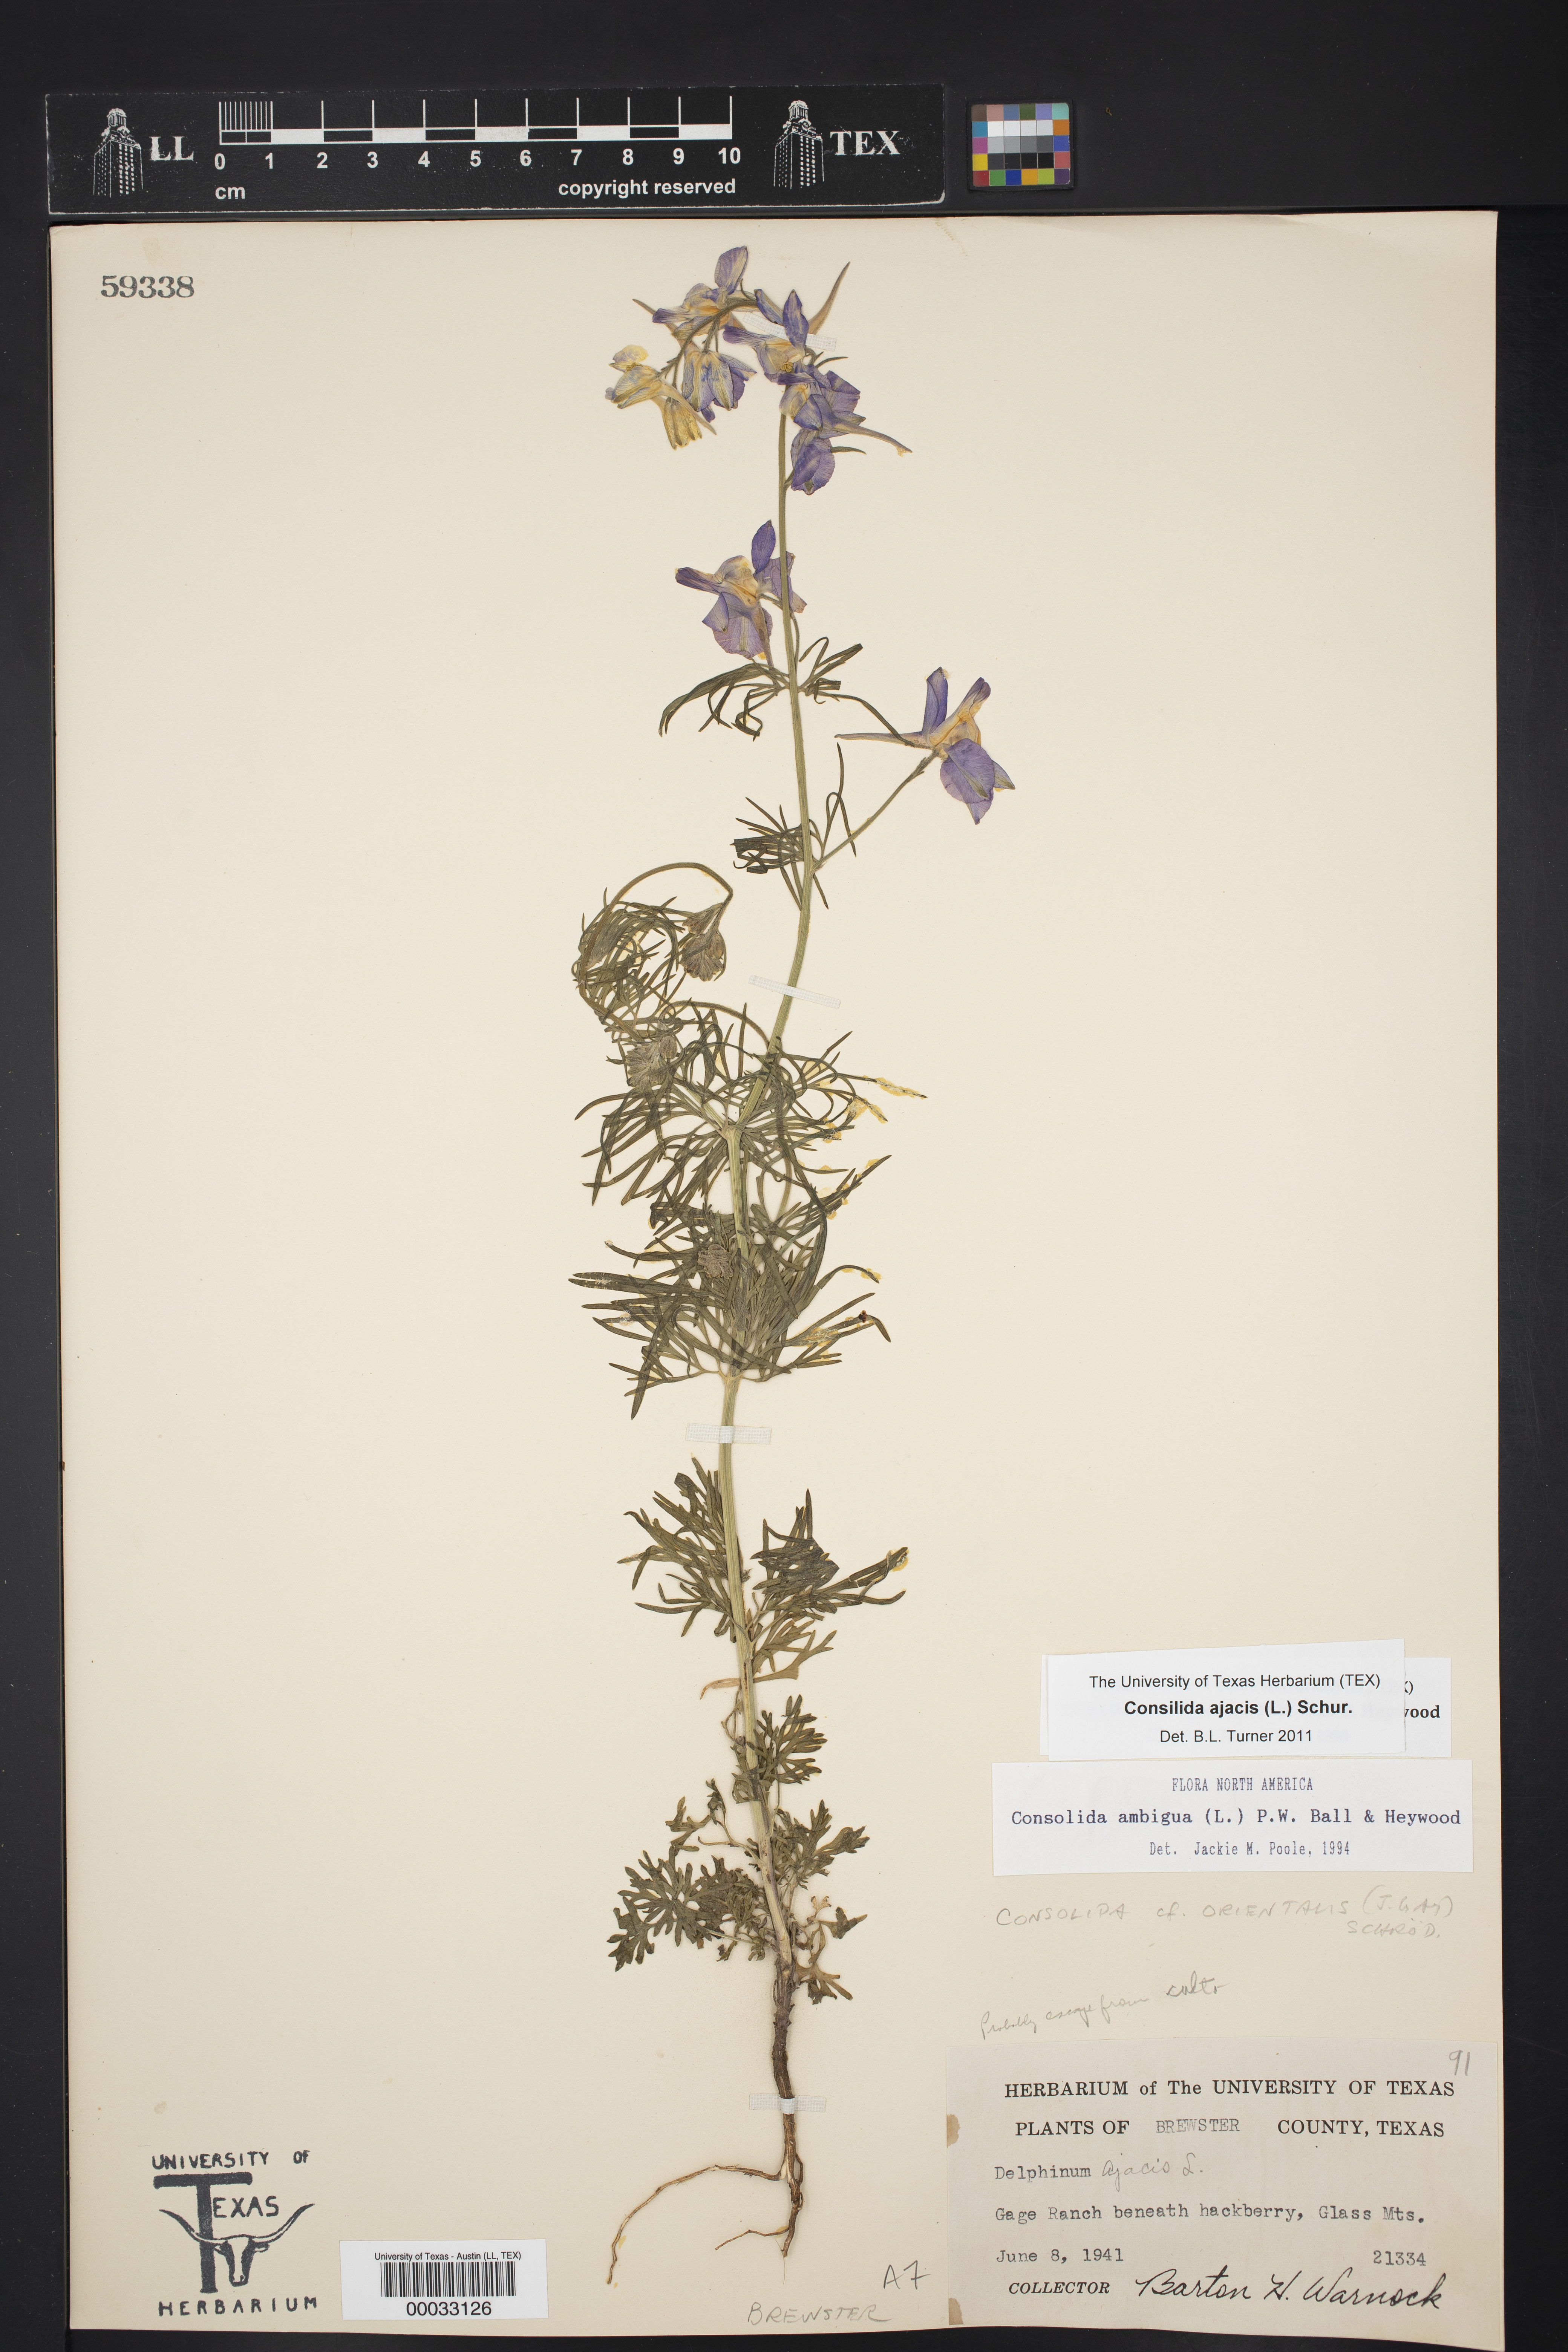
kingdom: Plantae
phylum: Tracheophyta
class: Magnoliopsida
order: Ranunculales
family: Ranunculaceae
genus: Delphinium
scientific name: Delphinium ajacis
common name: Doubtful knight's-spur
